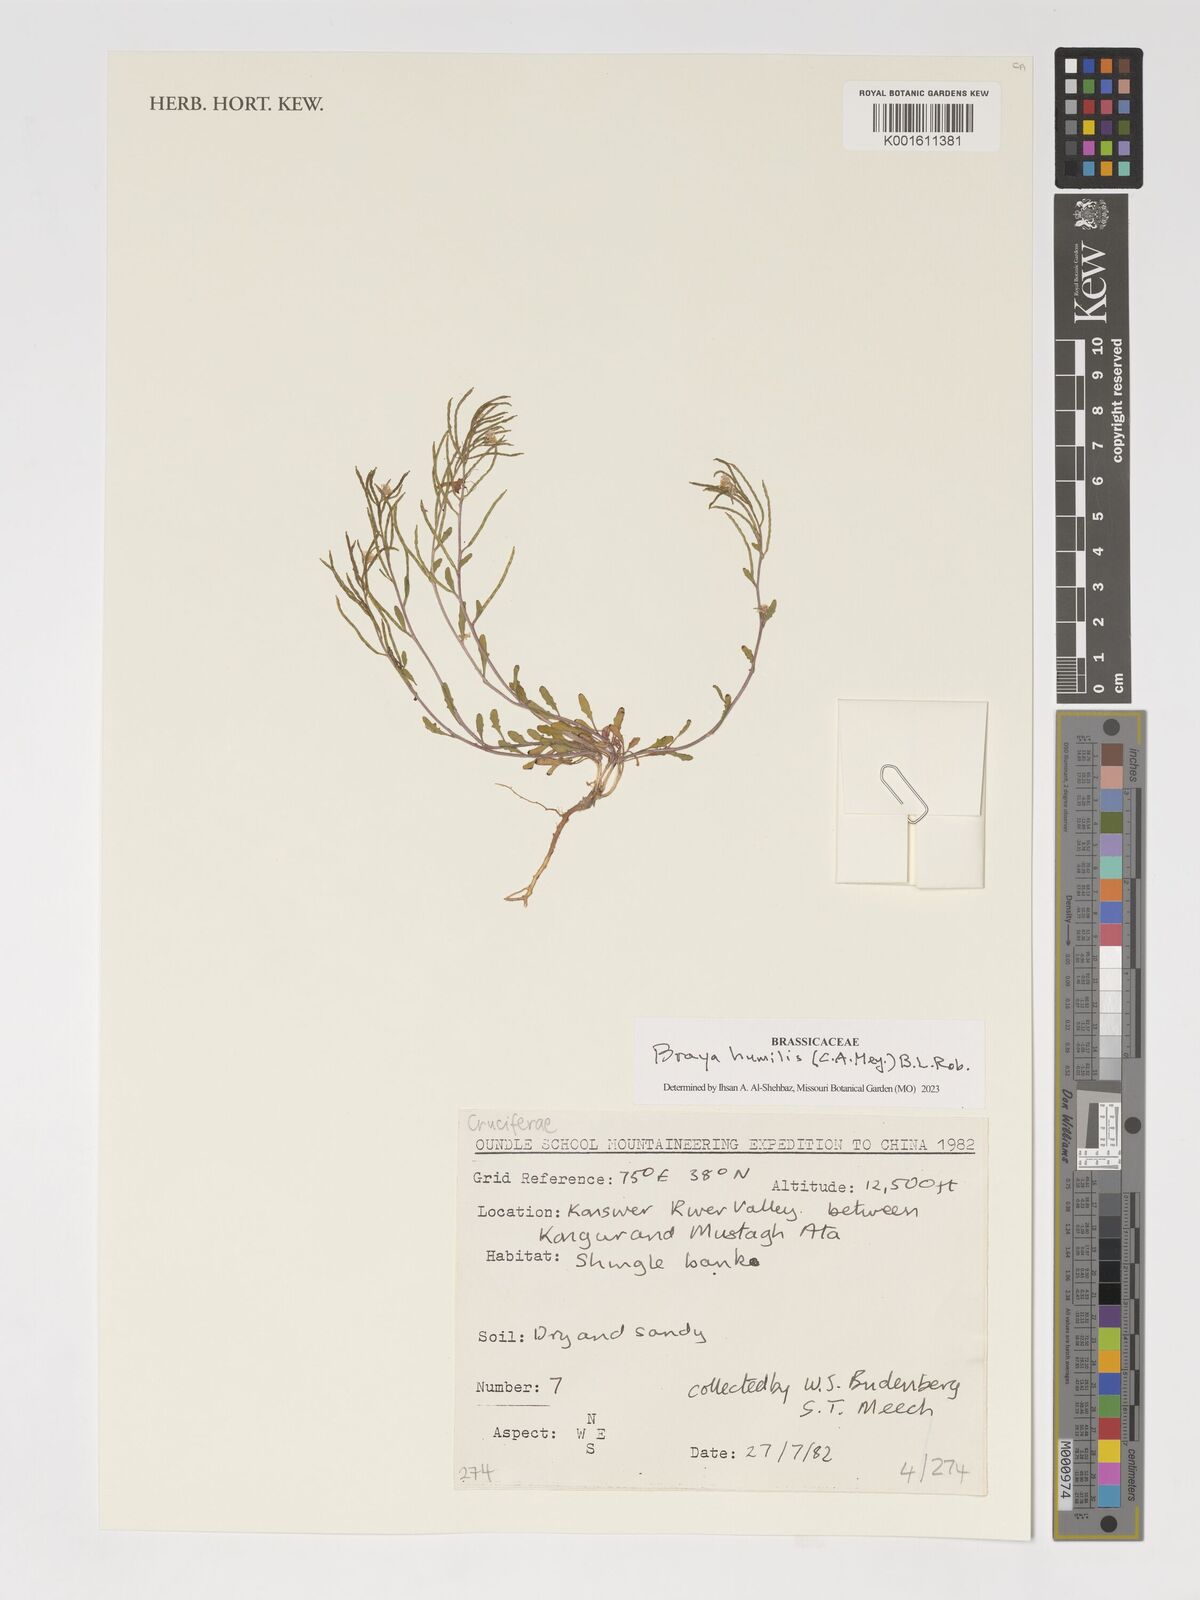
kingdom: Plantae
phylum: Tracheophyta
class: Magnoliopsida
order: Brassicales
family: Brassicaceae
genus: Braya
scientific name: Braya humilis
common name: Alpine northern rockcress
